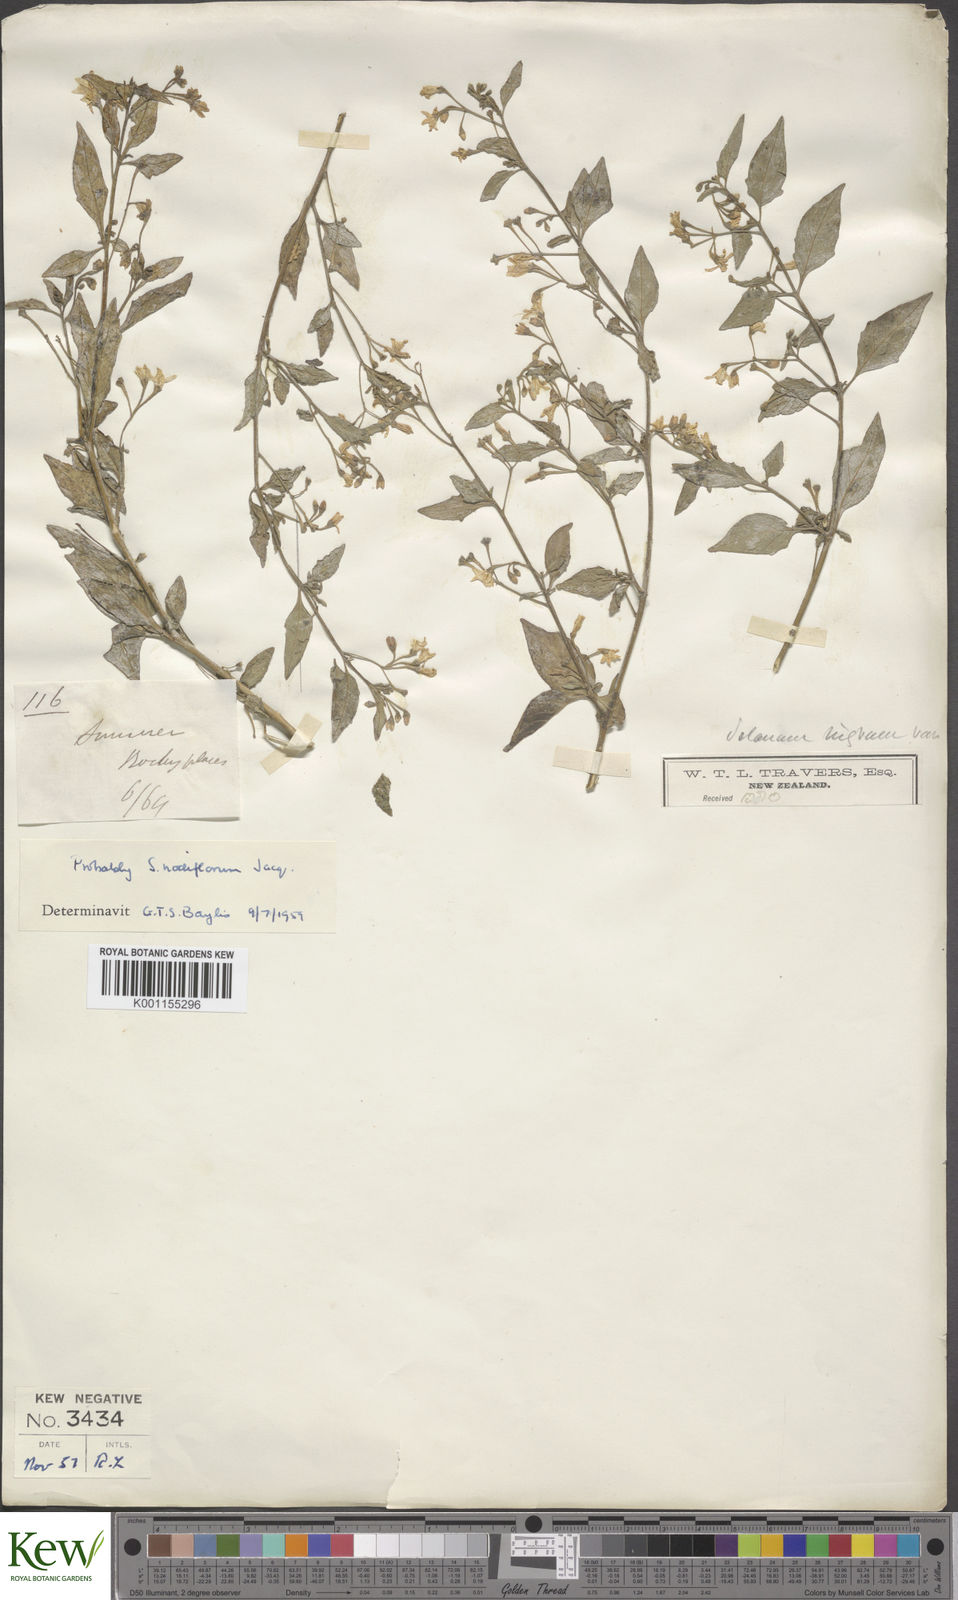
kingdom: Plantae
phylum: Tracheophyta
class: Magnoliopsida
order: Solanales
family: Solanaceae
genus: Solanum
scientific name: Solanum nigrum
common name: Black nightshade
